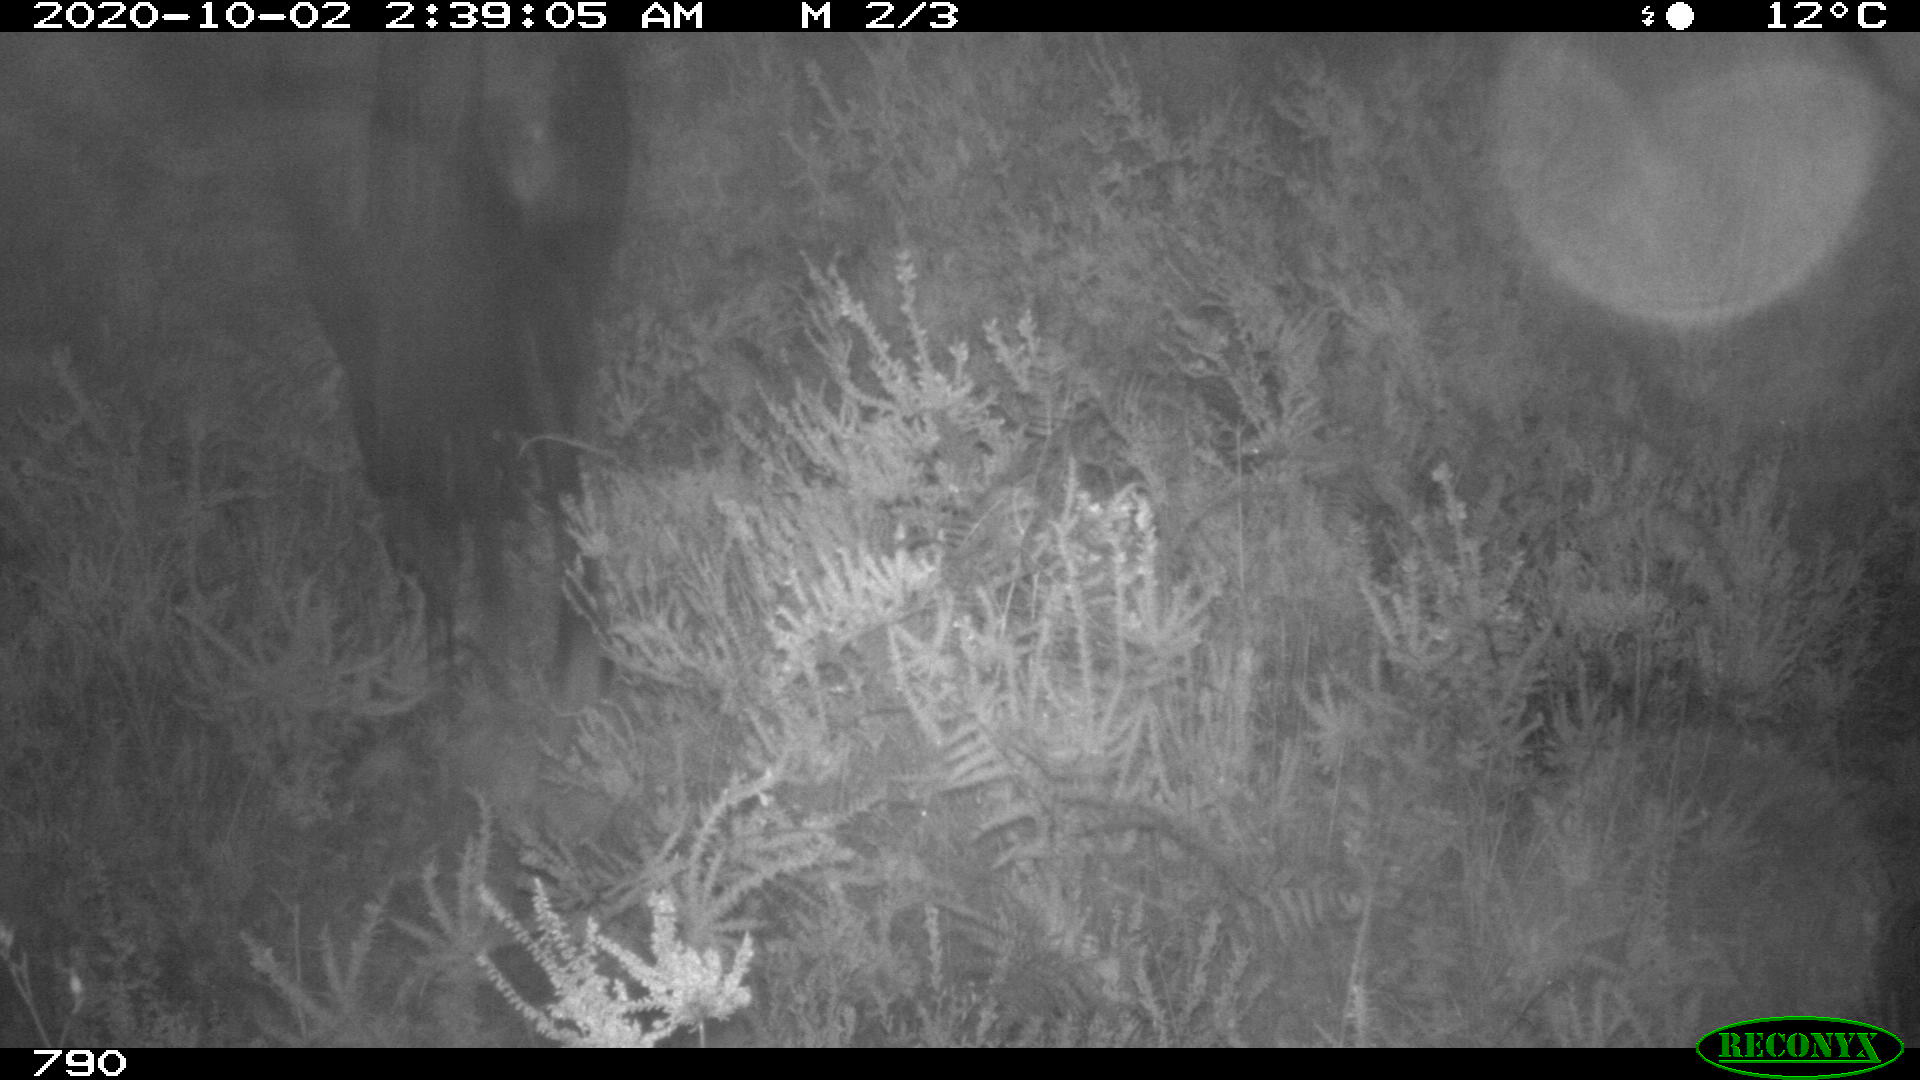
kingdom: Animalia
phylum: Chordata
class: Mammalia
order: Perissodactyla
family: Equidae
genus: Equus
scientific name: Equus caballus
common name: Horse
